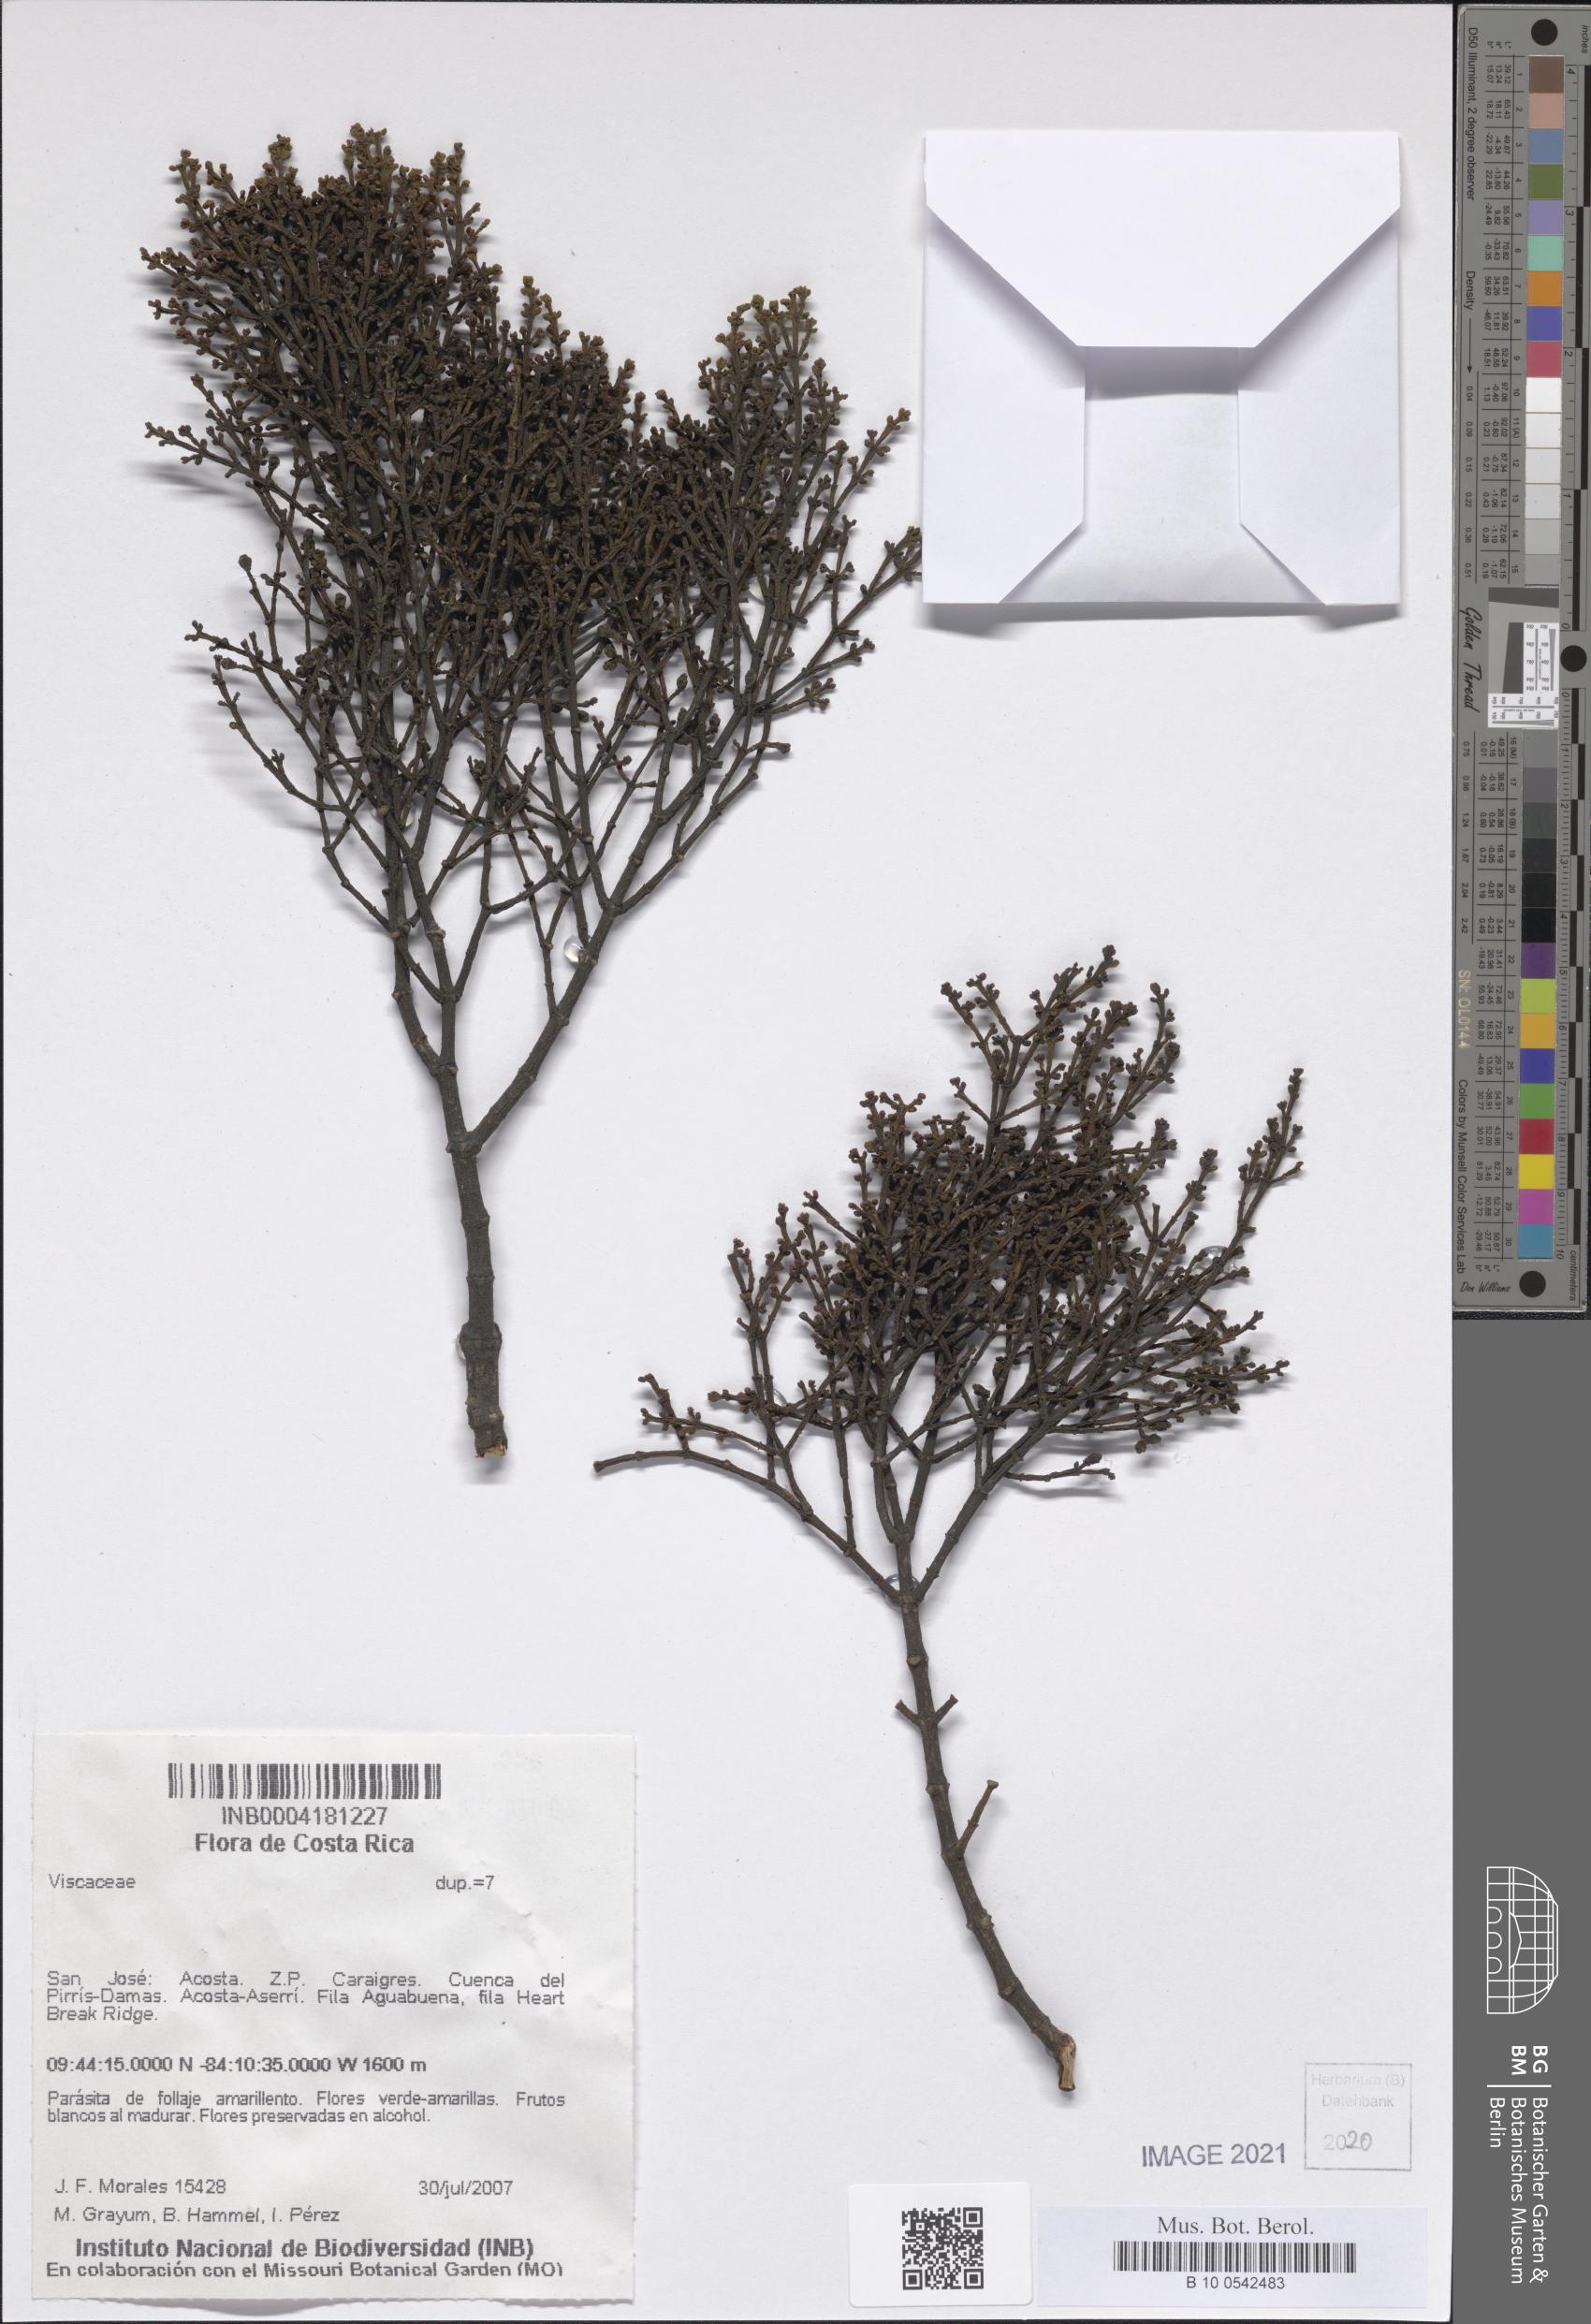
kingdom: Plantae
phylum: Tracheophyta
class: Magnoliopsida
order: Santalales
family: Viscaceae
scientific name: Viscaceae
